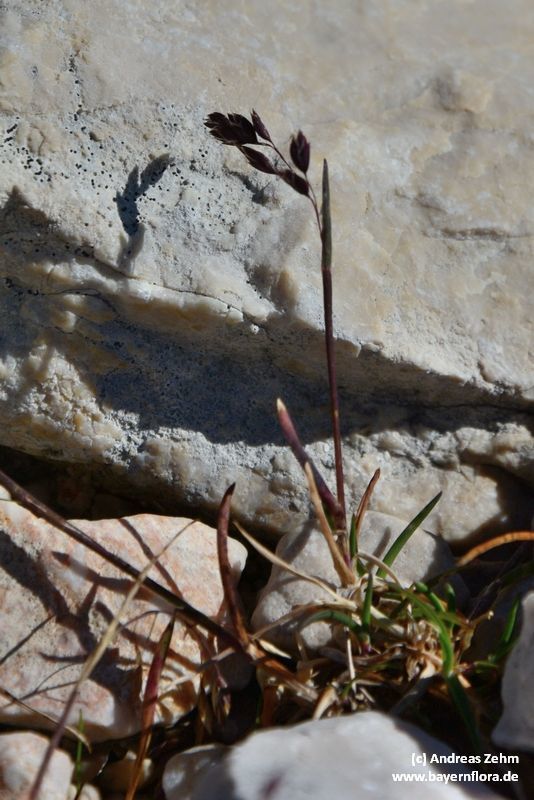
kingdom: Plantae
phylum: Tracheophyta
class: Liliopsida
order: Poales
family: Poaceae
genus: Poa
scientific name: Poa minor
